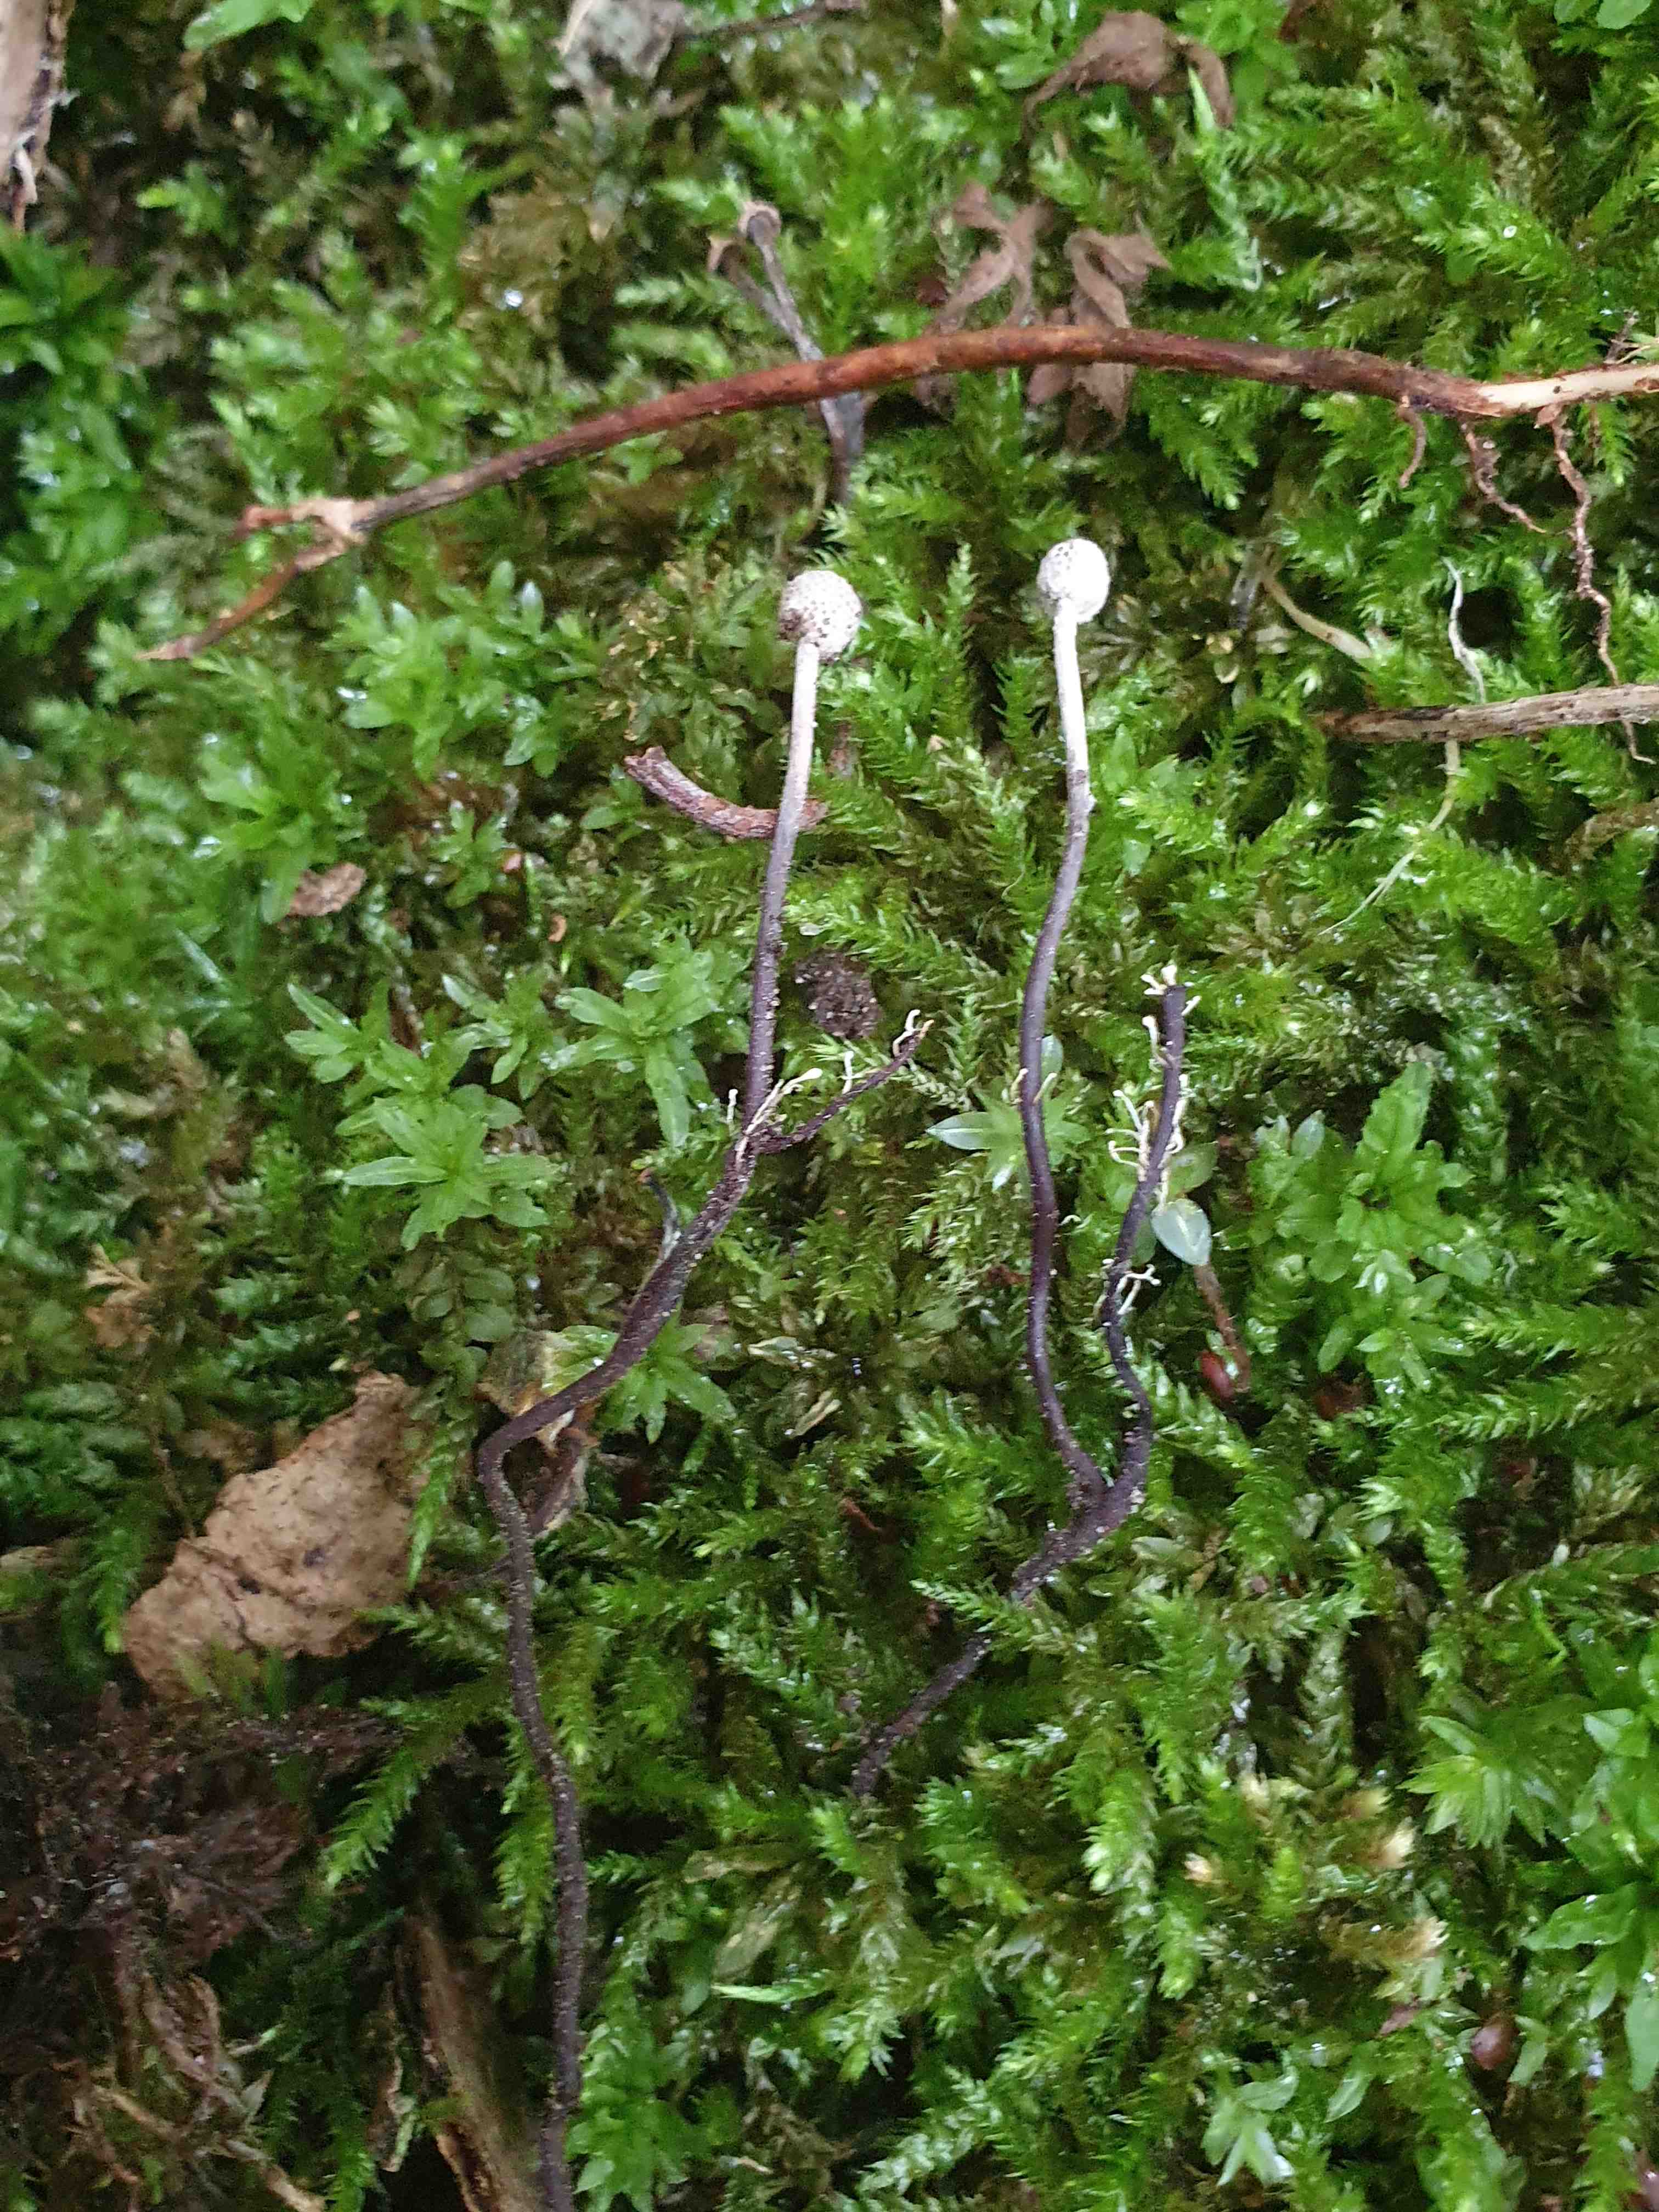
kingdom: Fungi
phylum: Ascomycota
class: Sordariomycetes
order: Hypocreales
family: Ophiocordycipitaceae
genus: Polycephalomyces
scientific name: Polycephalomyces ramosus
